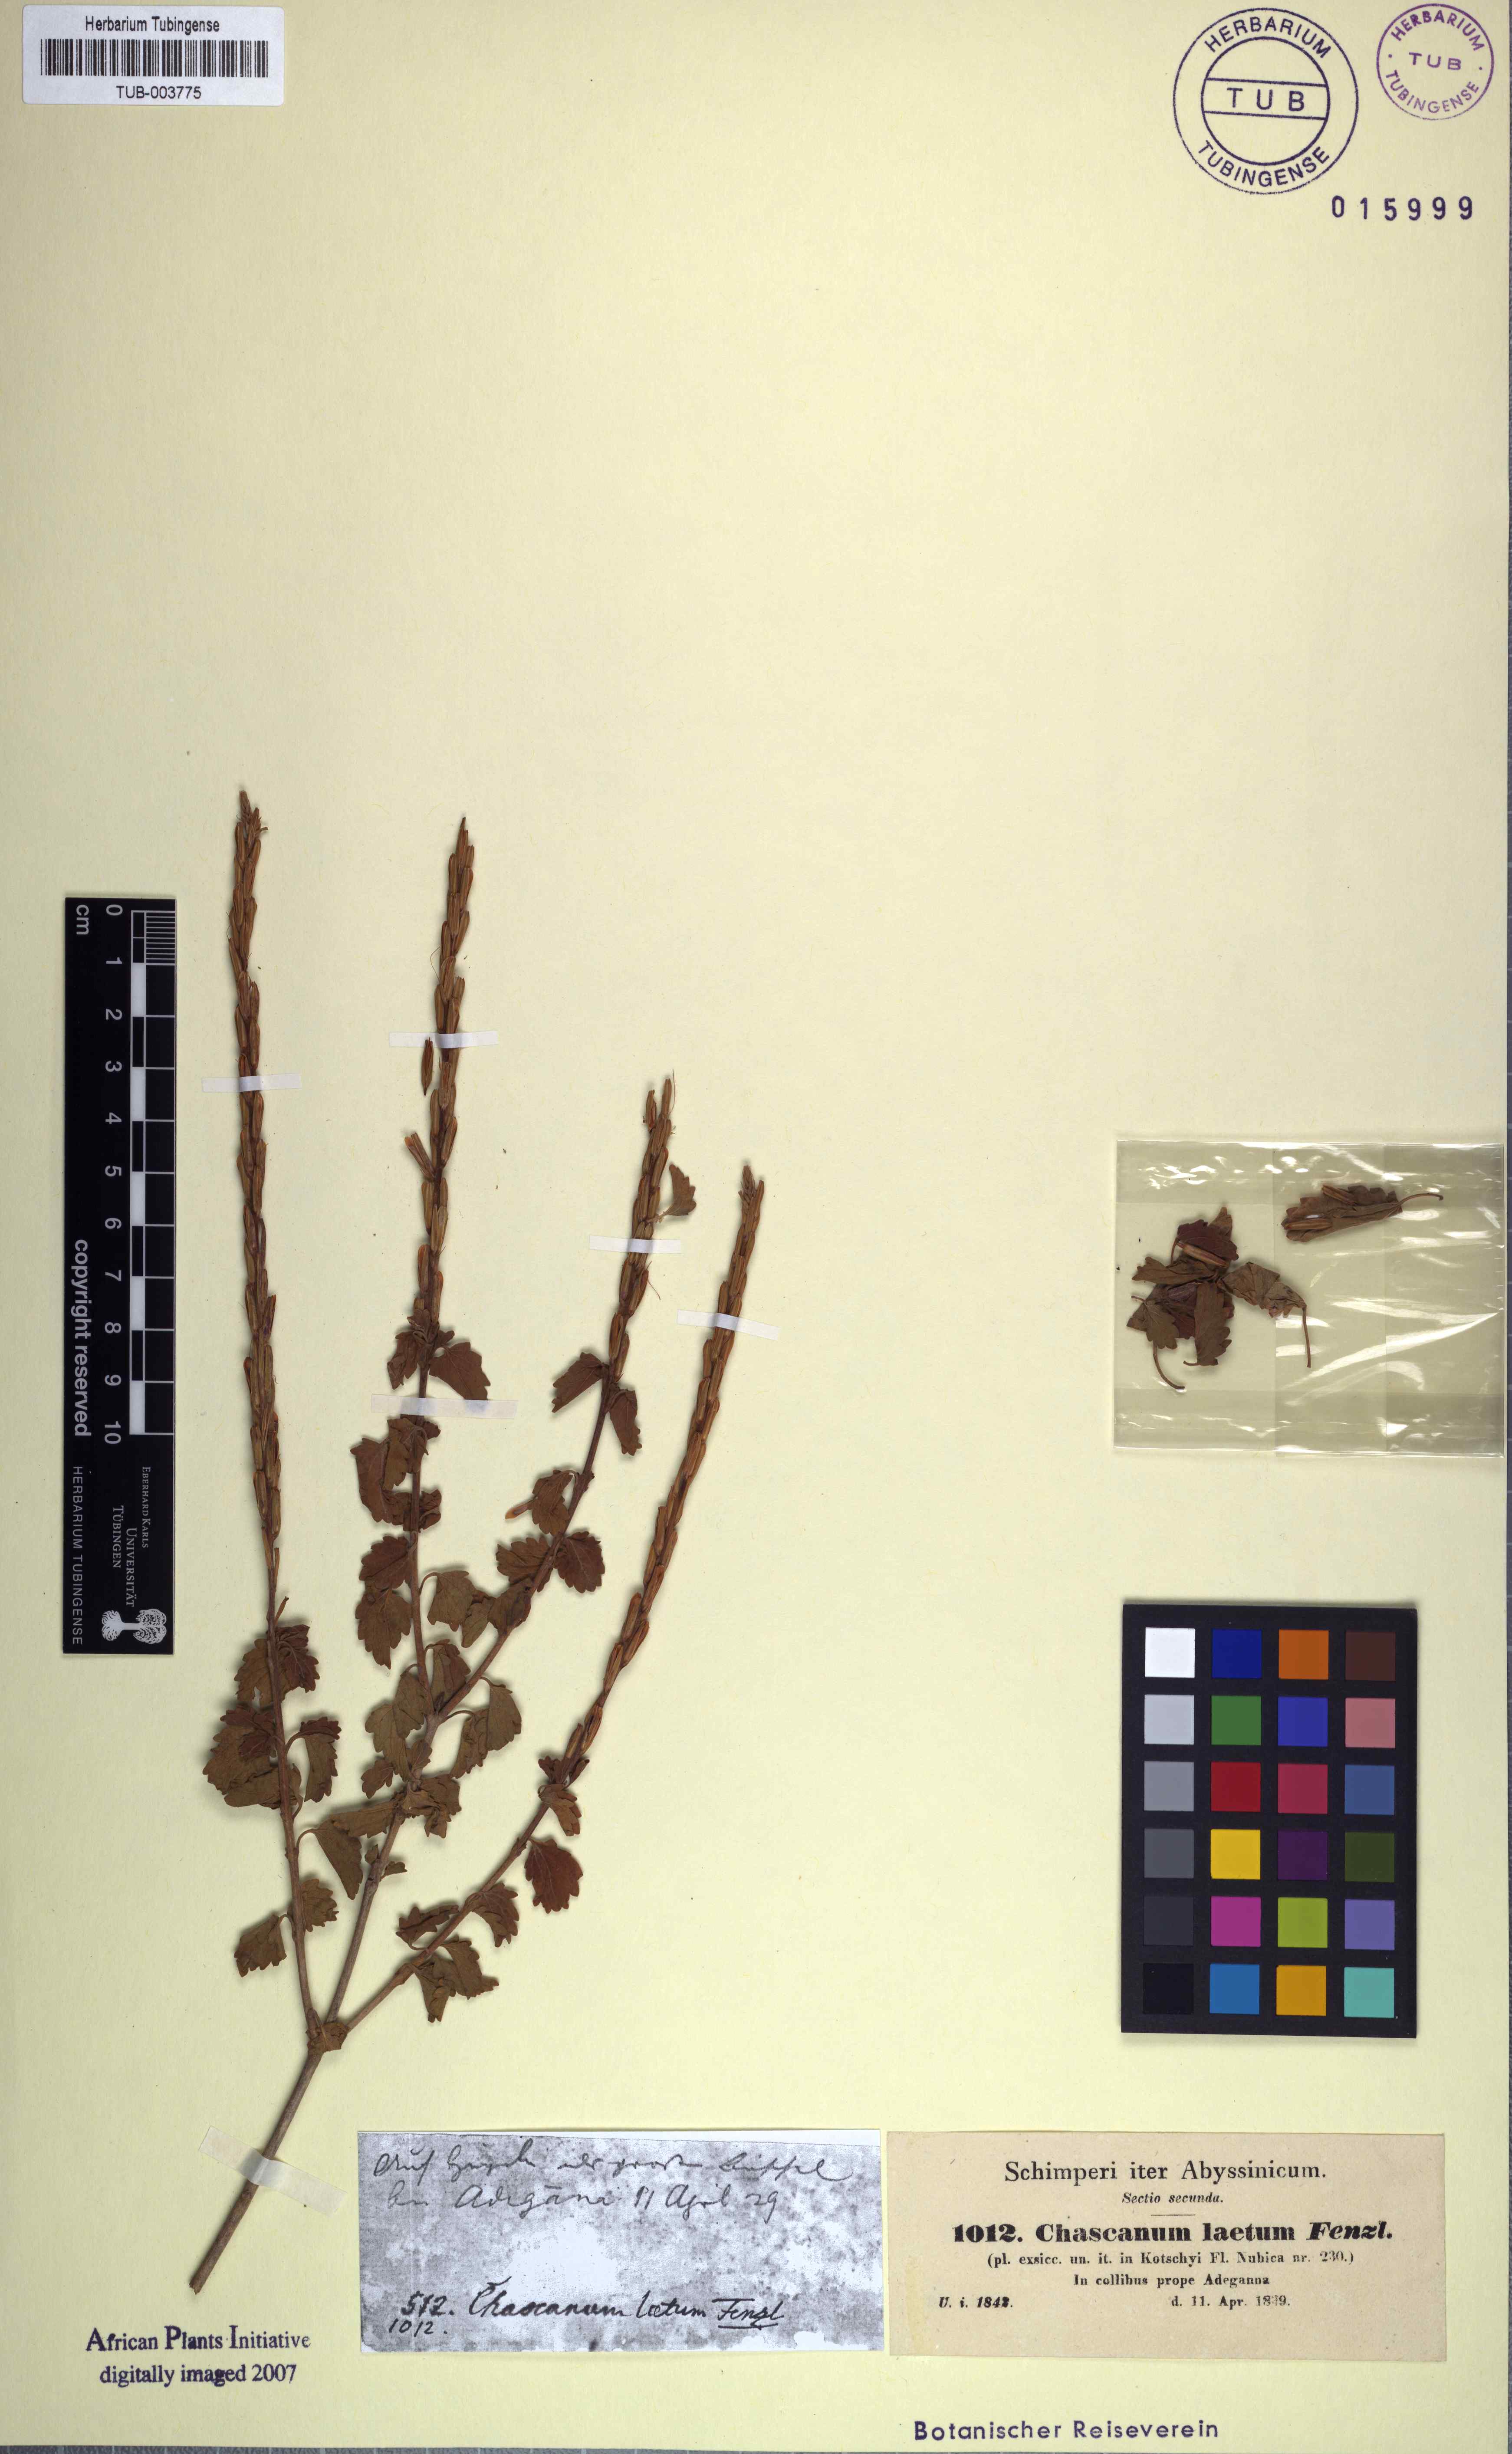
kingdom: Plantae
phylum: Tracheophyta
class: Magnoliopsida
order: Lamiales
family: Verbenaceae
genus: Chascanum
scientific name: Chascanum laetum
